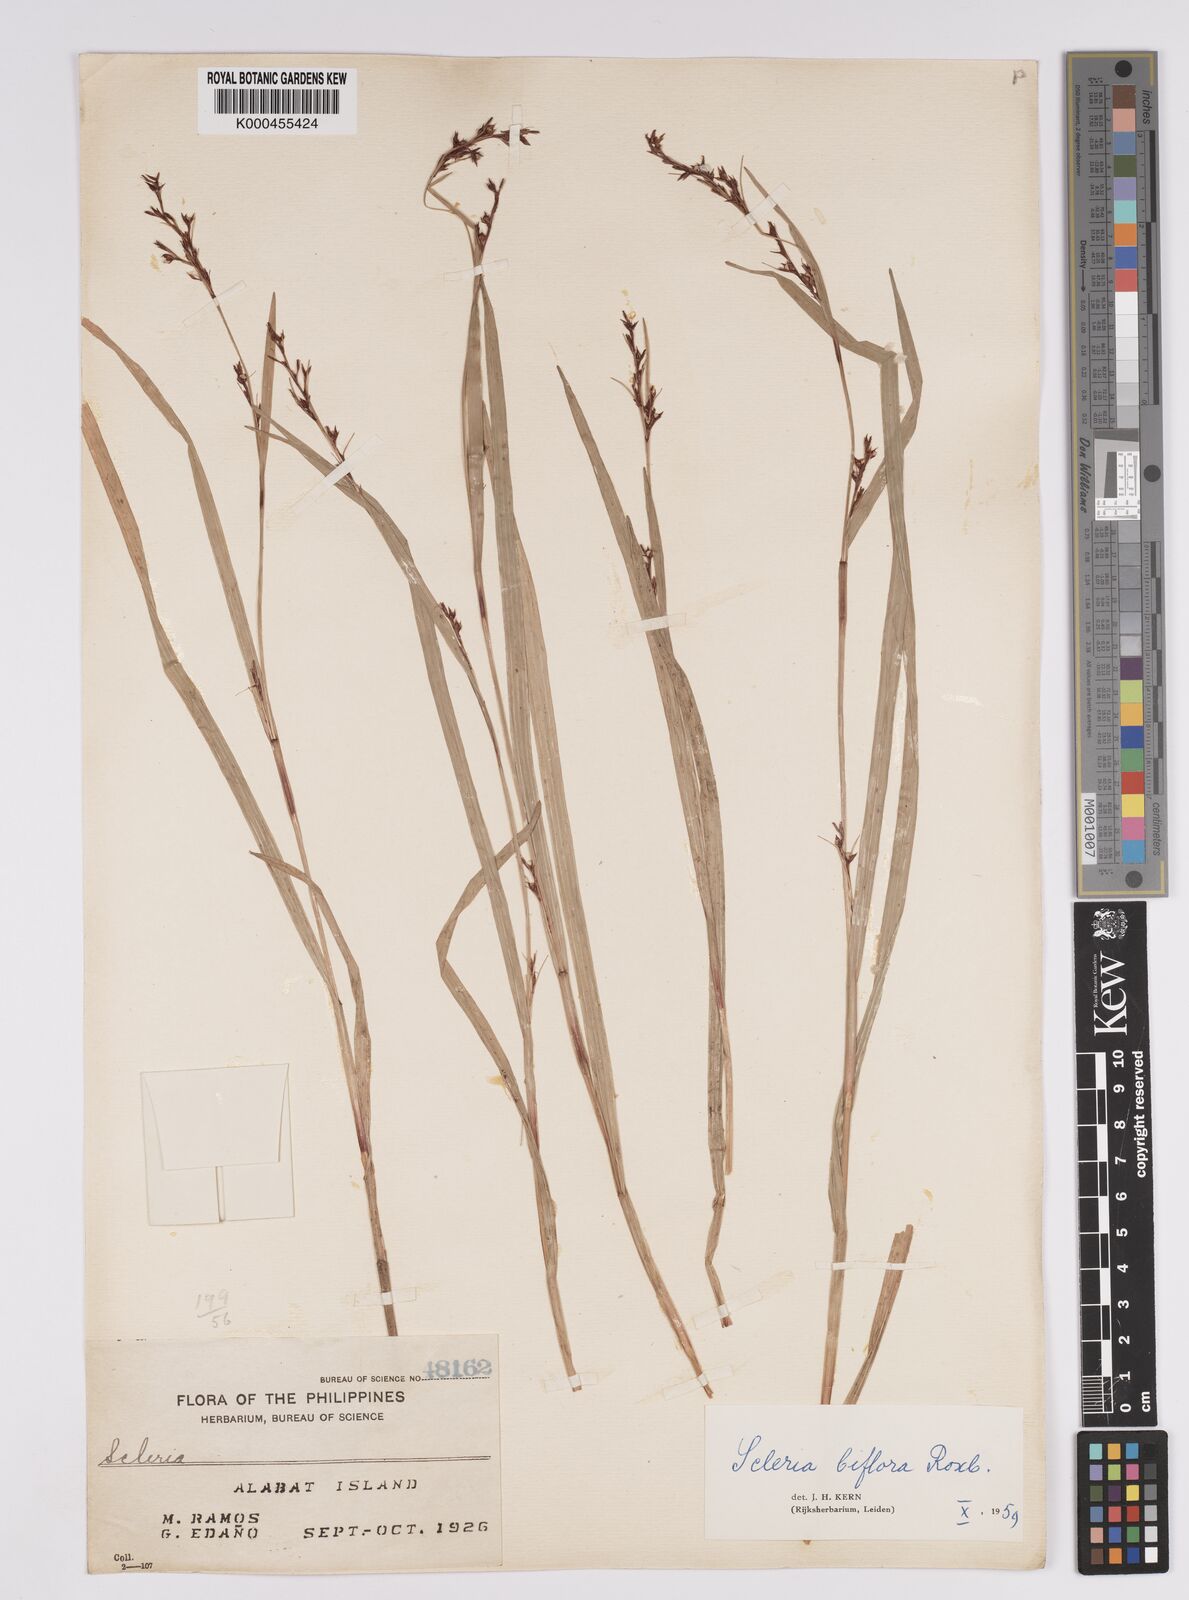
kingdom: Plantae
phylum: Tracheophyta
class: Liliopsida
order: Poales
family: Cyperaceae
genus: Scleria
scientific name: Scleria biflora
